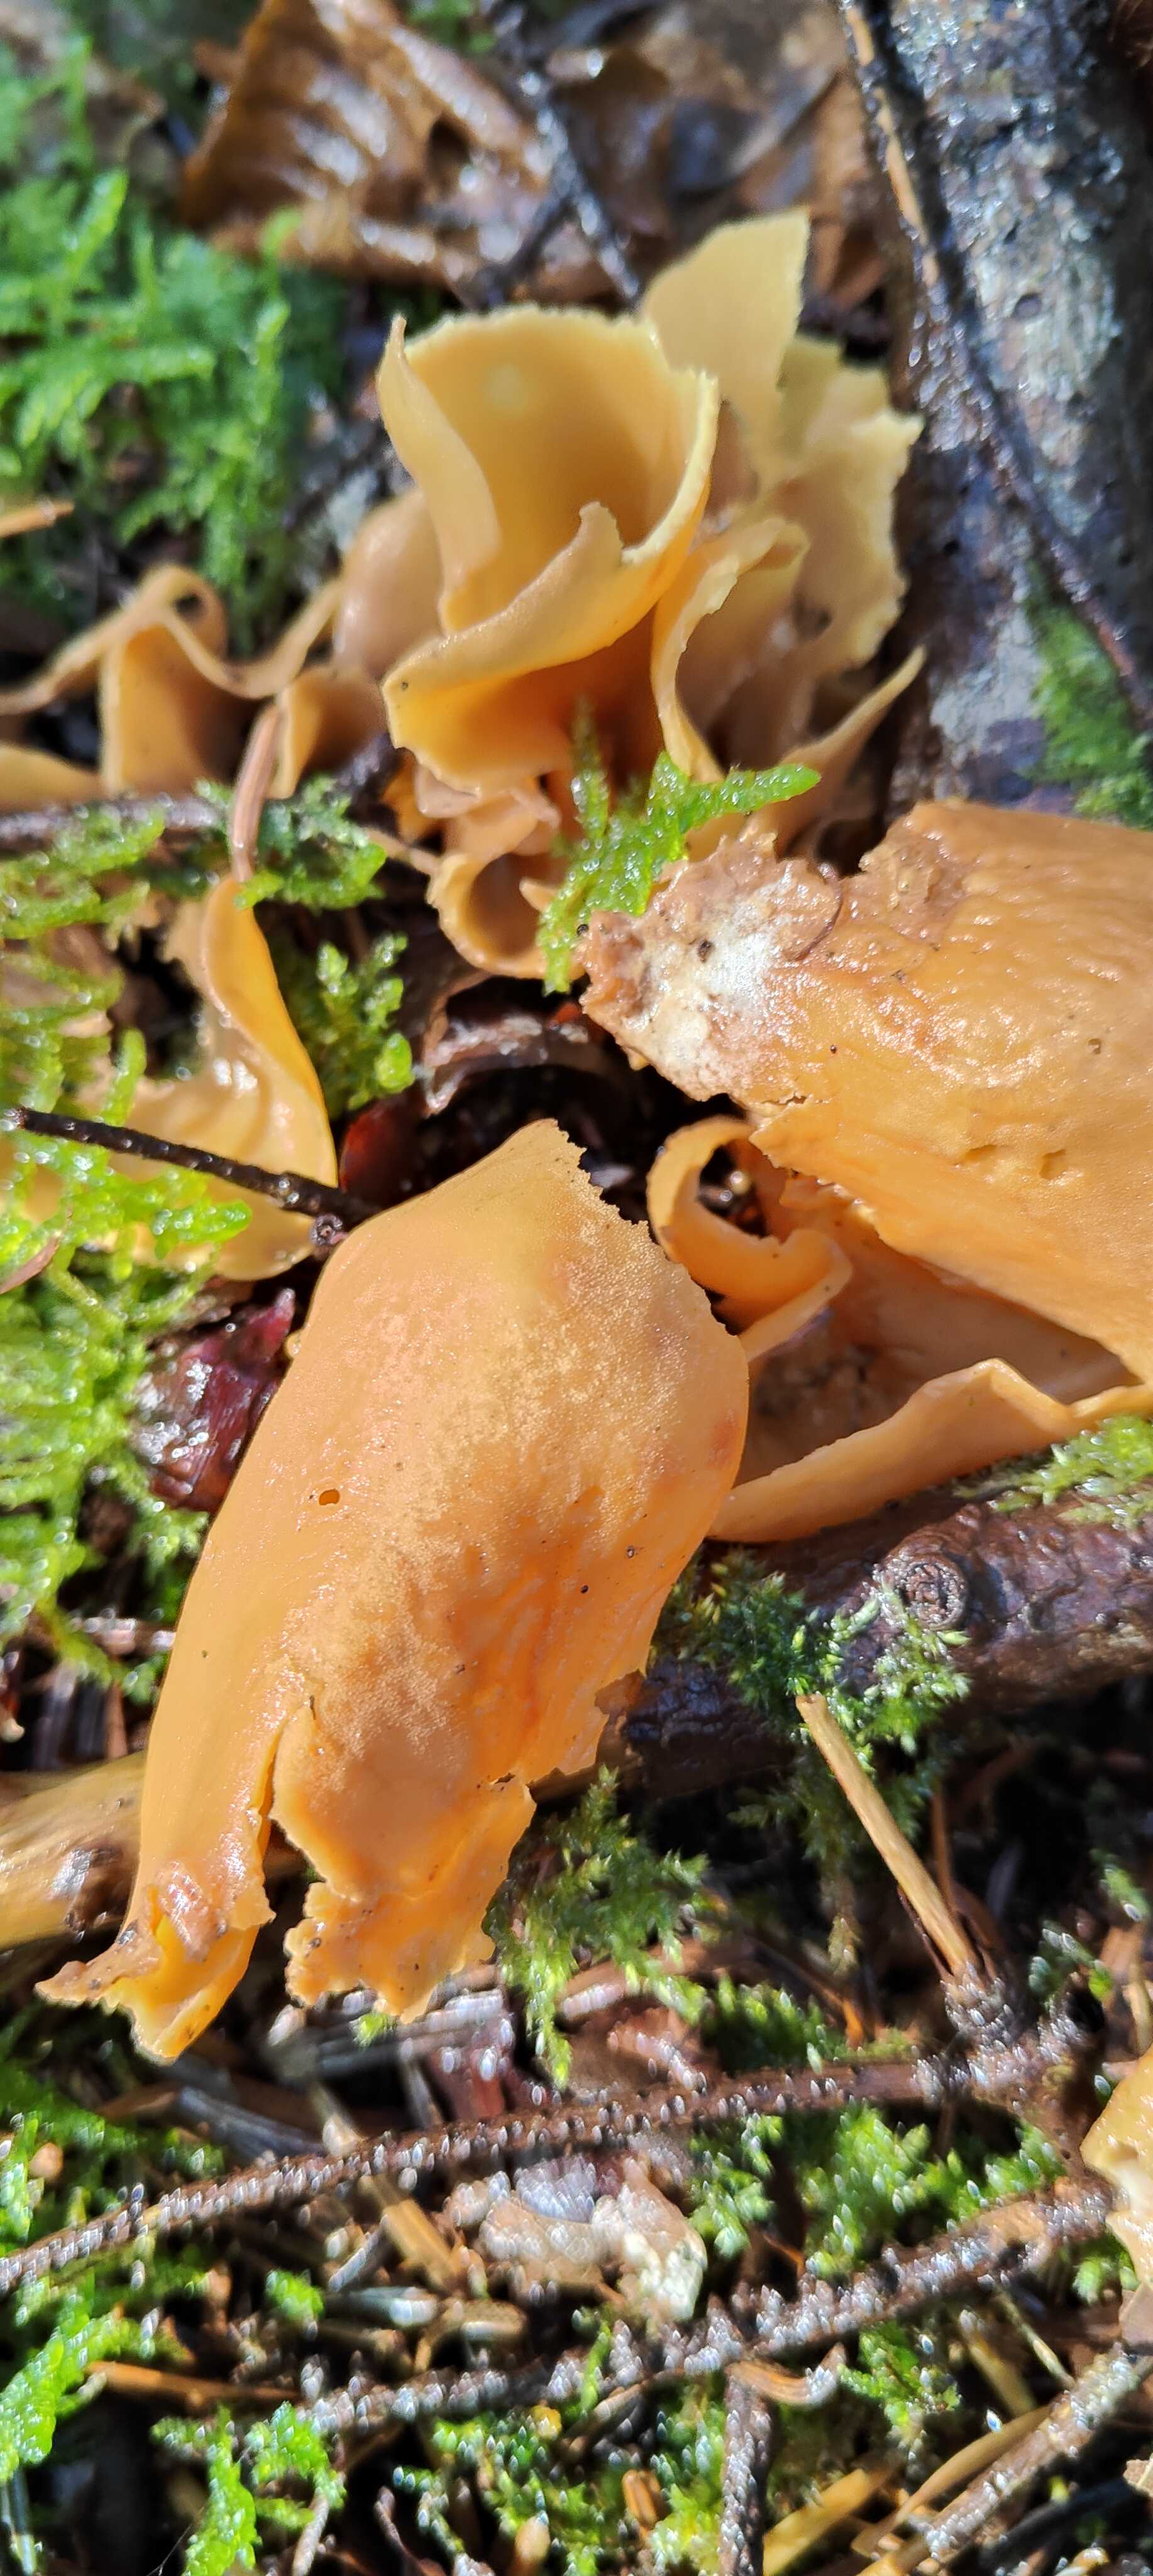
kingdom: Fungi
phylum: Ascomycota
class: Pezizomycetes
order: Pezizales
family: Otideaceae
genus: Otidea
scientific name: Otidea onotica
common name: æsel-ørebæger
